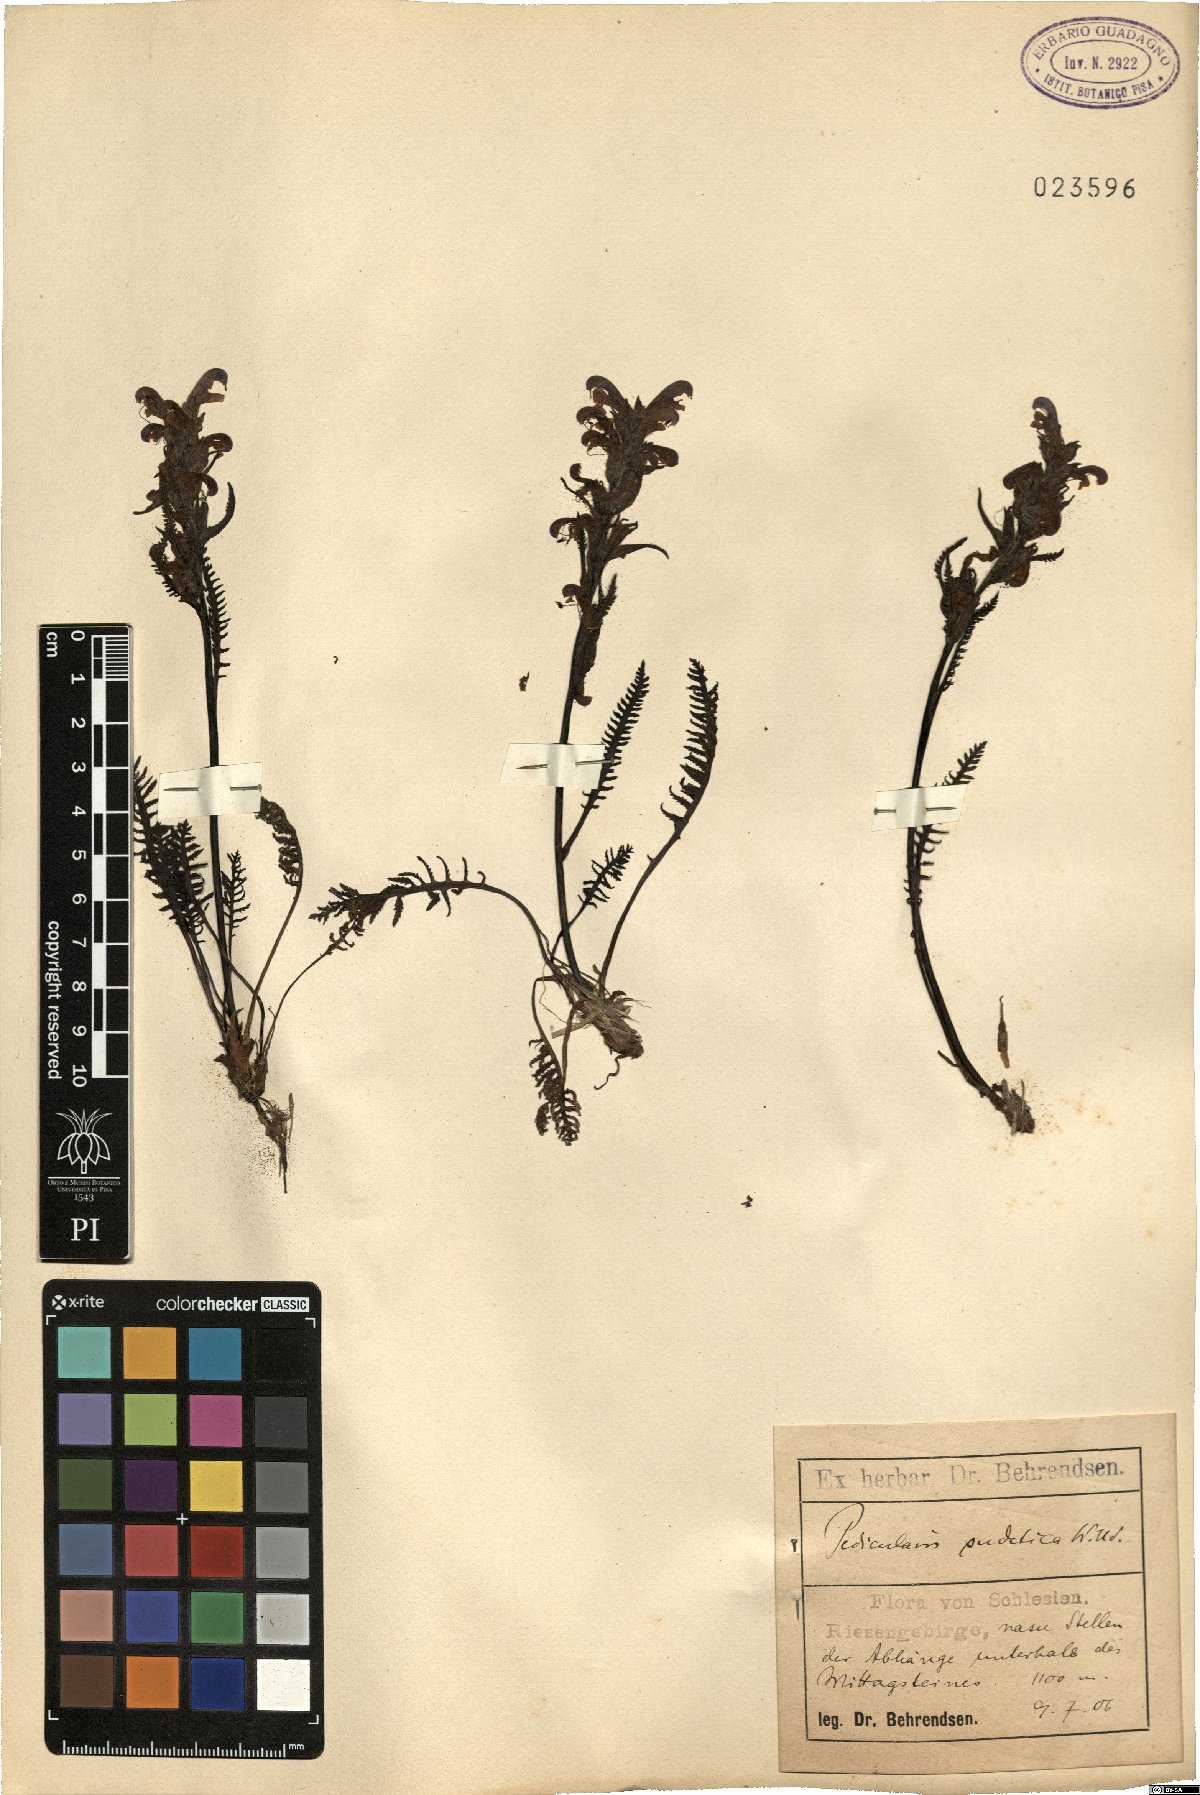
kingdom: Plantae
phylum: Tracheophyta
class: Magnoliopsida
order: Lamiales
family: Orobanchaceae
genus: Pedicularis
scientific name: Pedicularis sudetica
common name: Sudeten lousewort
